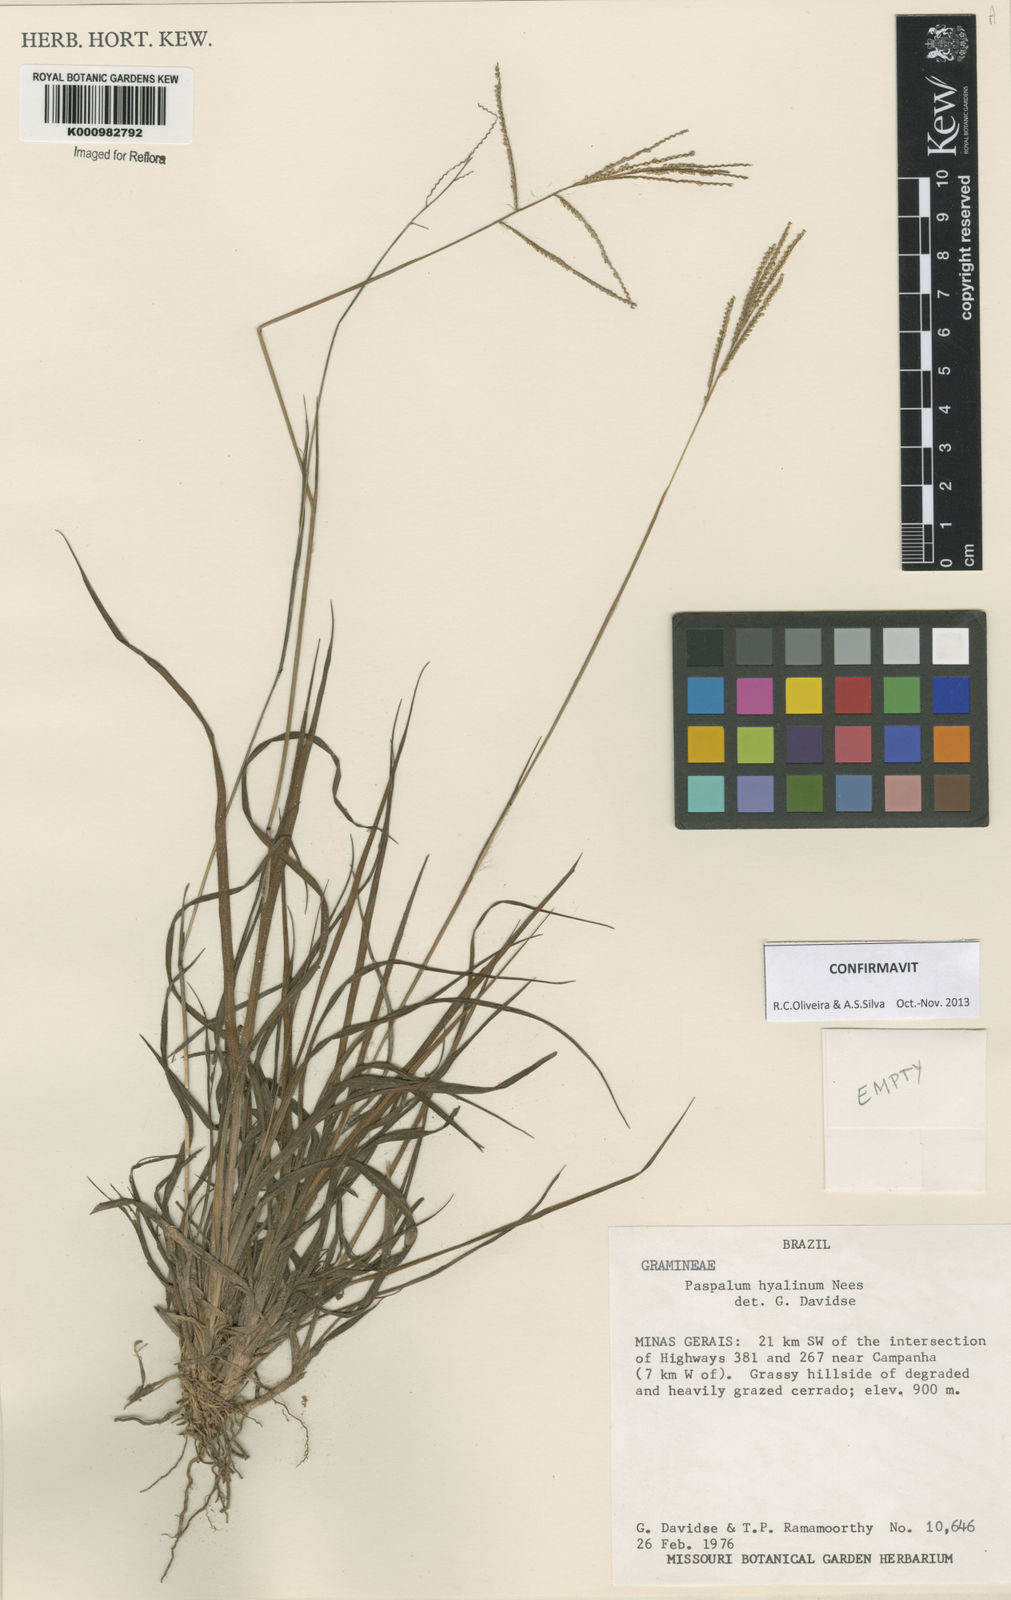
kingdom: Plantae
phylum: Tracheophyta
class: Liliopsida
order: Poales
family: Poaceae
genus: Paspalum
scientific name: Paspalum hyalinum
